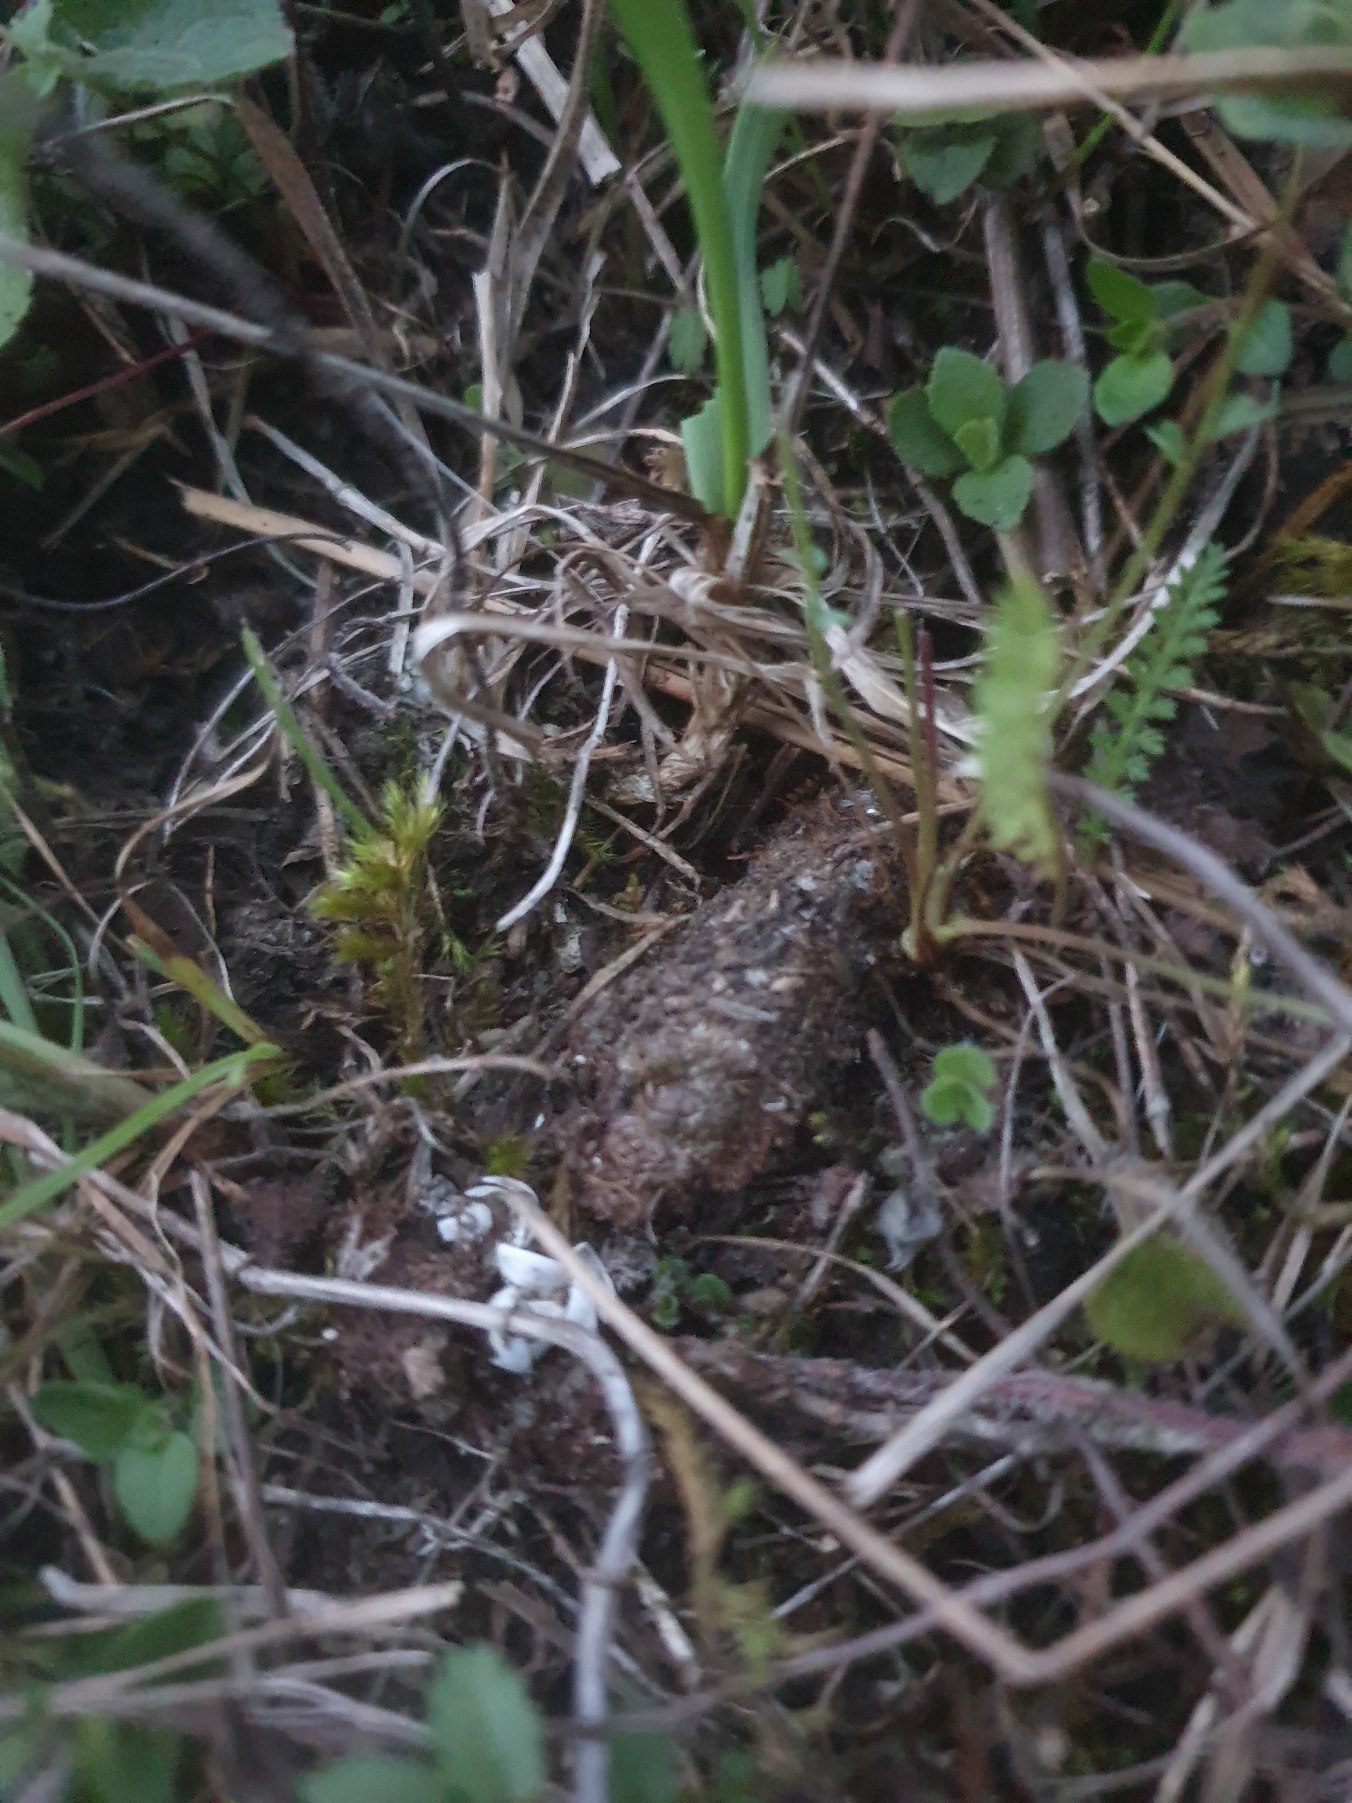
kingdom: Animalia
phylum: Arthropoda
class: Arachnida
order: Araneae
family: Atypidae
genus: Atypus
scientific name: Atypus affinis
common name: Nordlig fugleedderkop
